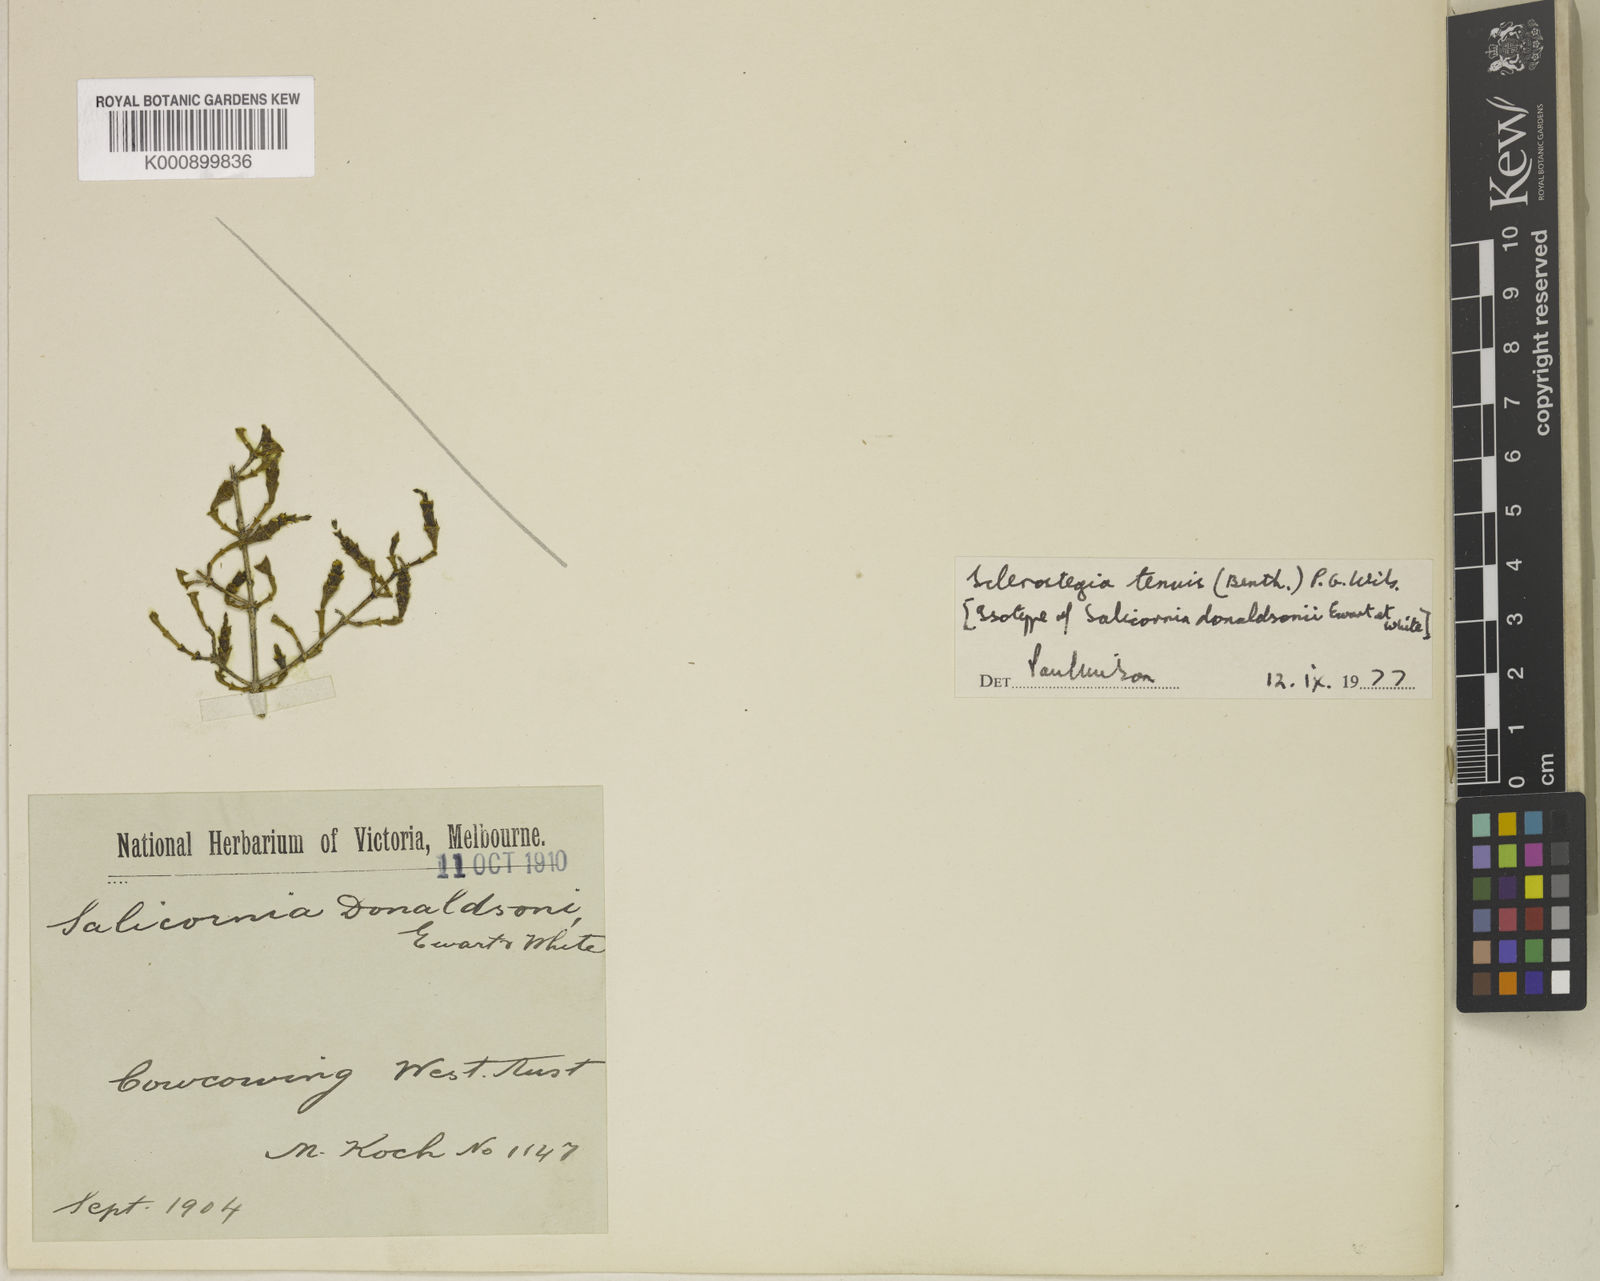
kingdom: Plantae
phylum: Tracheophyta
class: Magnoliopsida
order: Caryophyllales
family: Amaranthaceae
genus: Tecticornia
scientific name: Tecticornia tenuis
